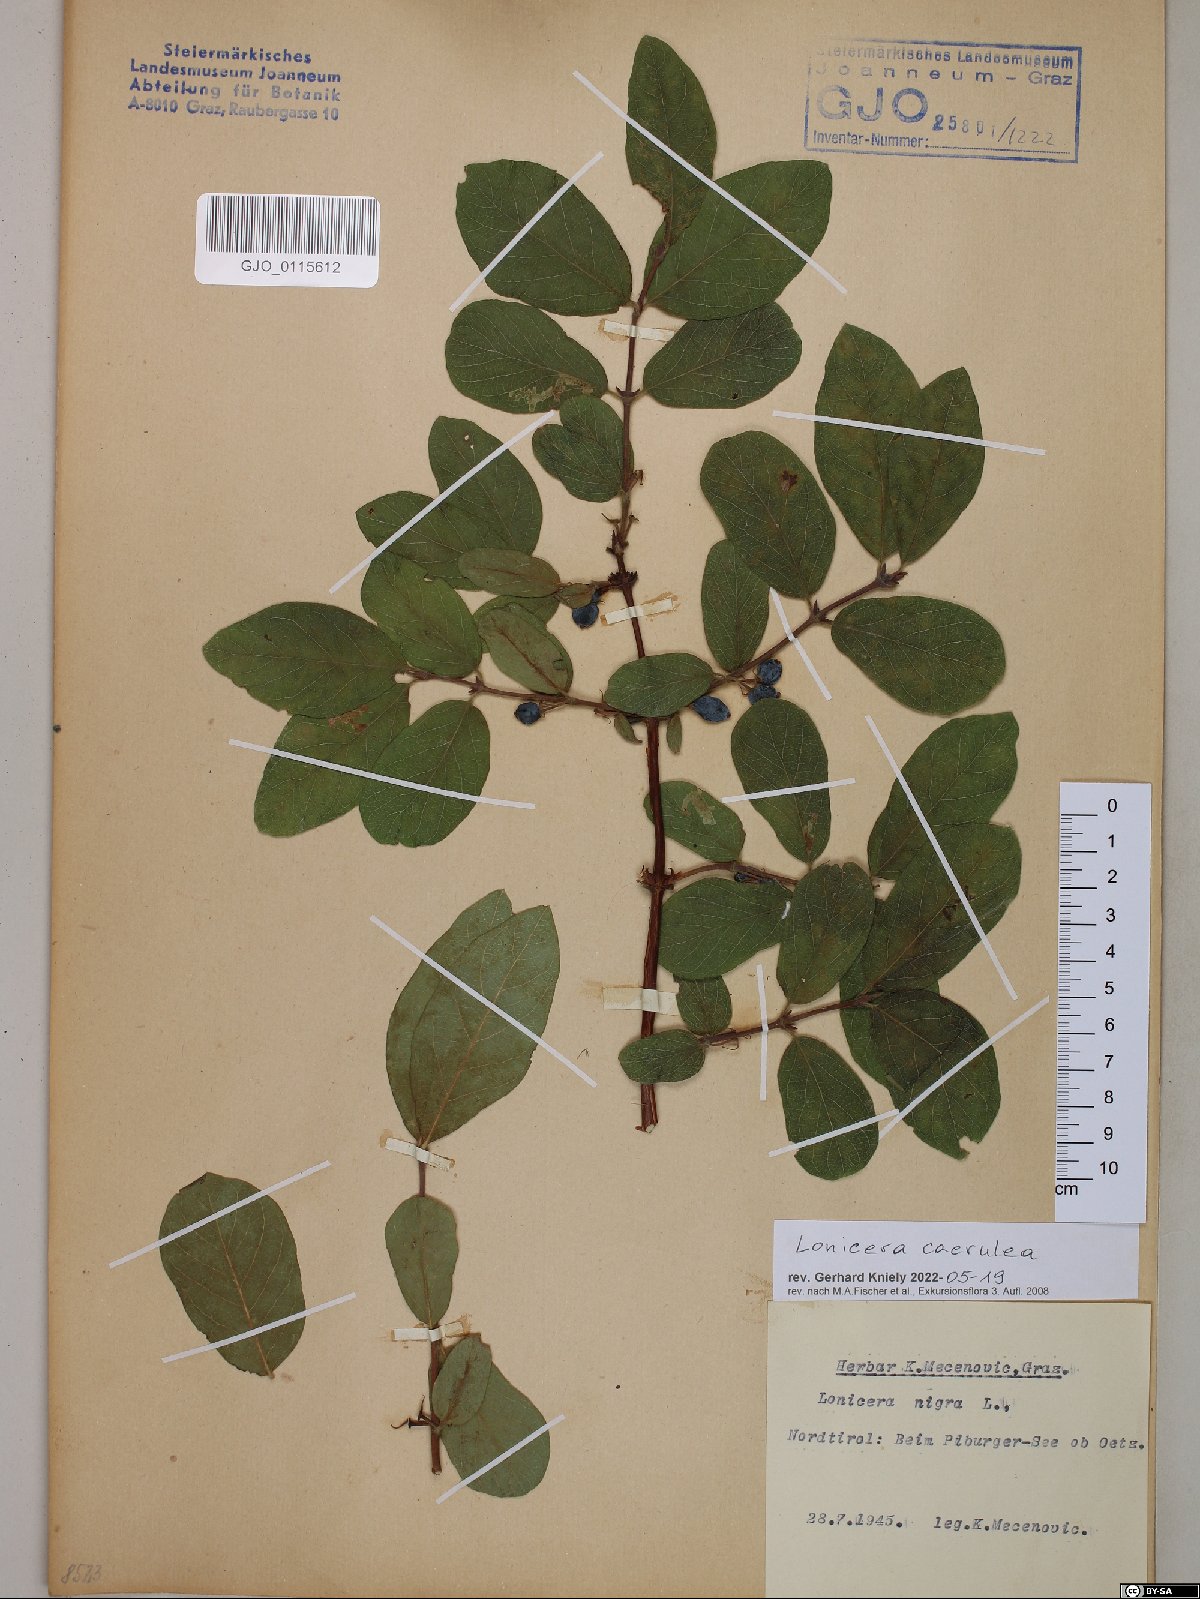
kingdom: Plantae
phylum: Tracheophyta
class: Magnoliopsida
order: Dipsacales
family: Caprifoliaceae
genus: Lonicera
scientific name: Lonicera caerulea
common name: Blue honeysuckle
